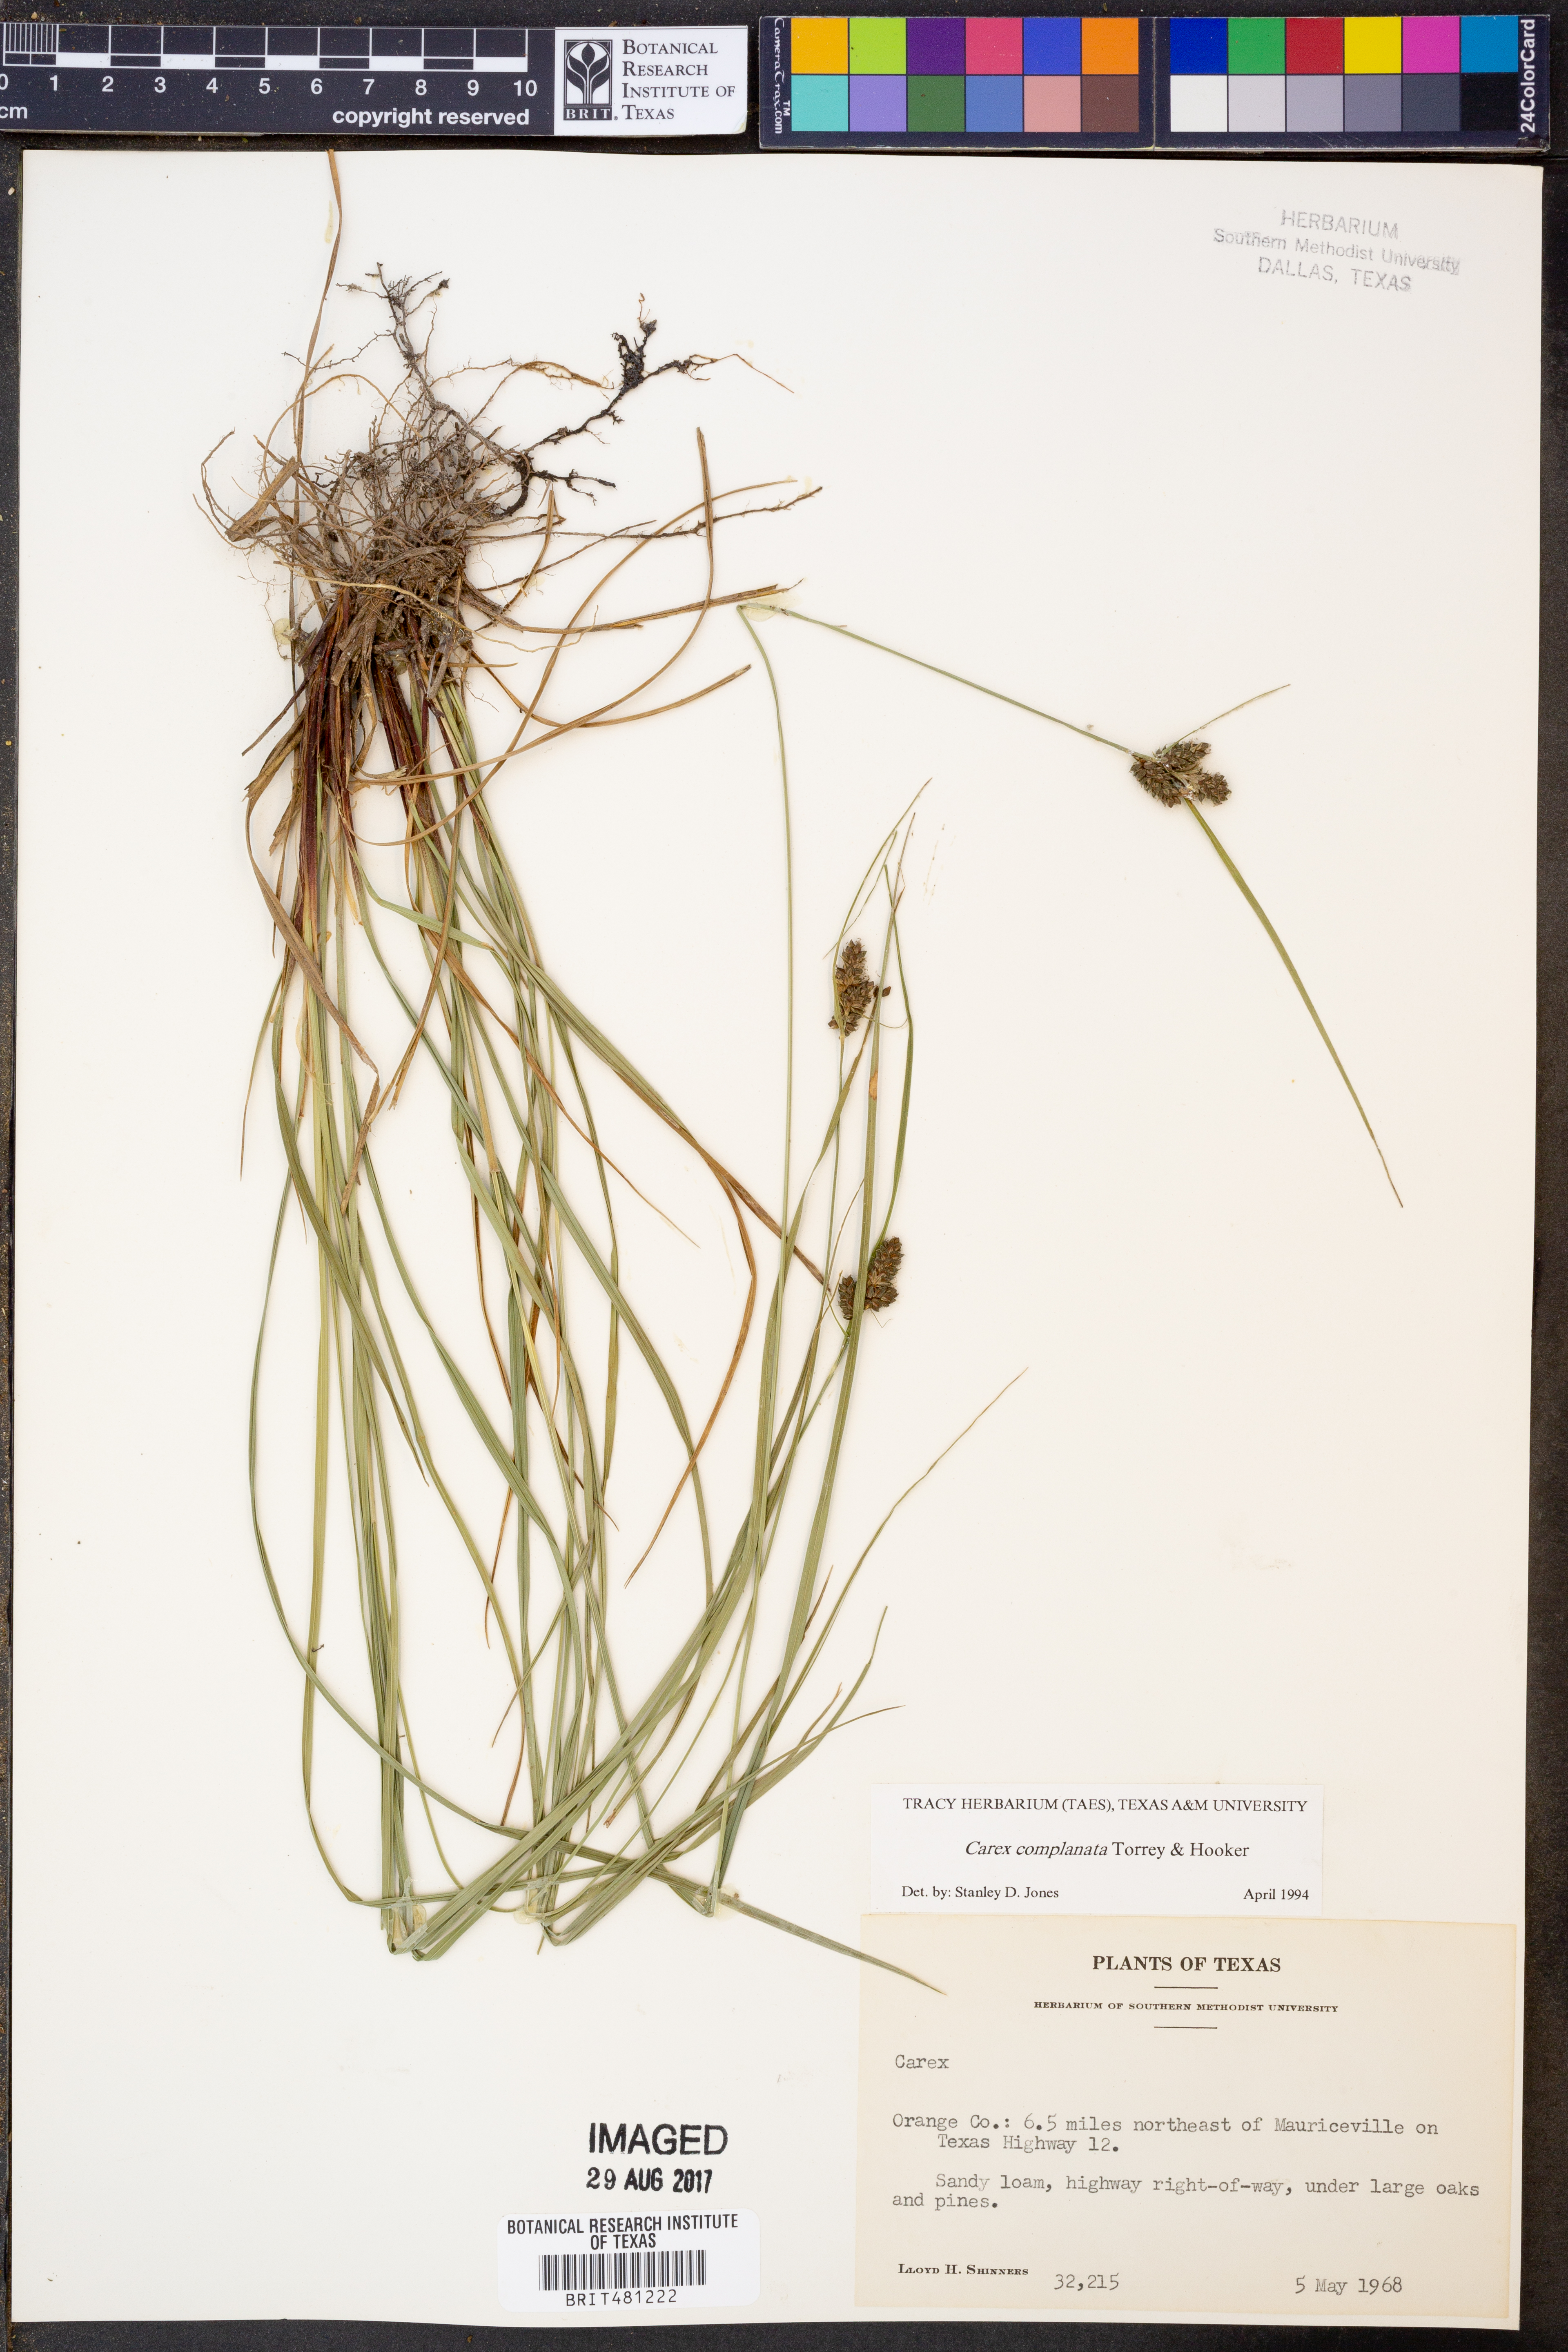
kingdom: Plantae
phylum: Tracheophyta
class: Liliopsida
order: Poales
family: Cyperaceae
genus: Carex
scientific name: Carex complanata
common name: Hirsute sedge
